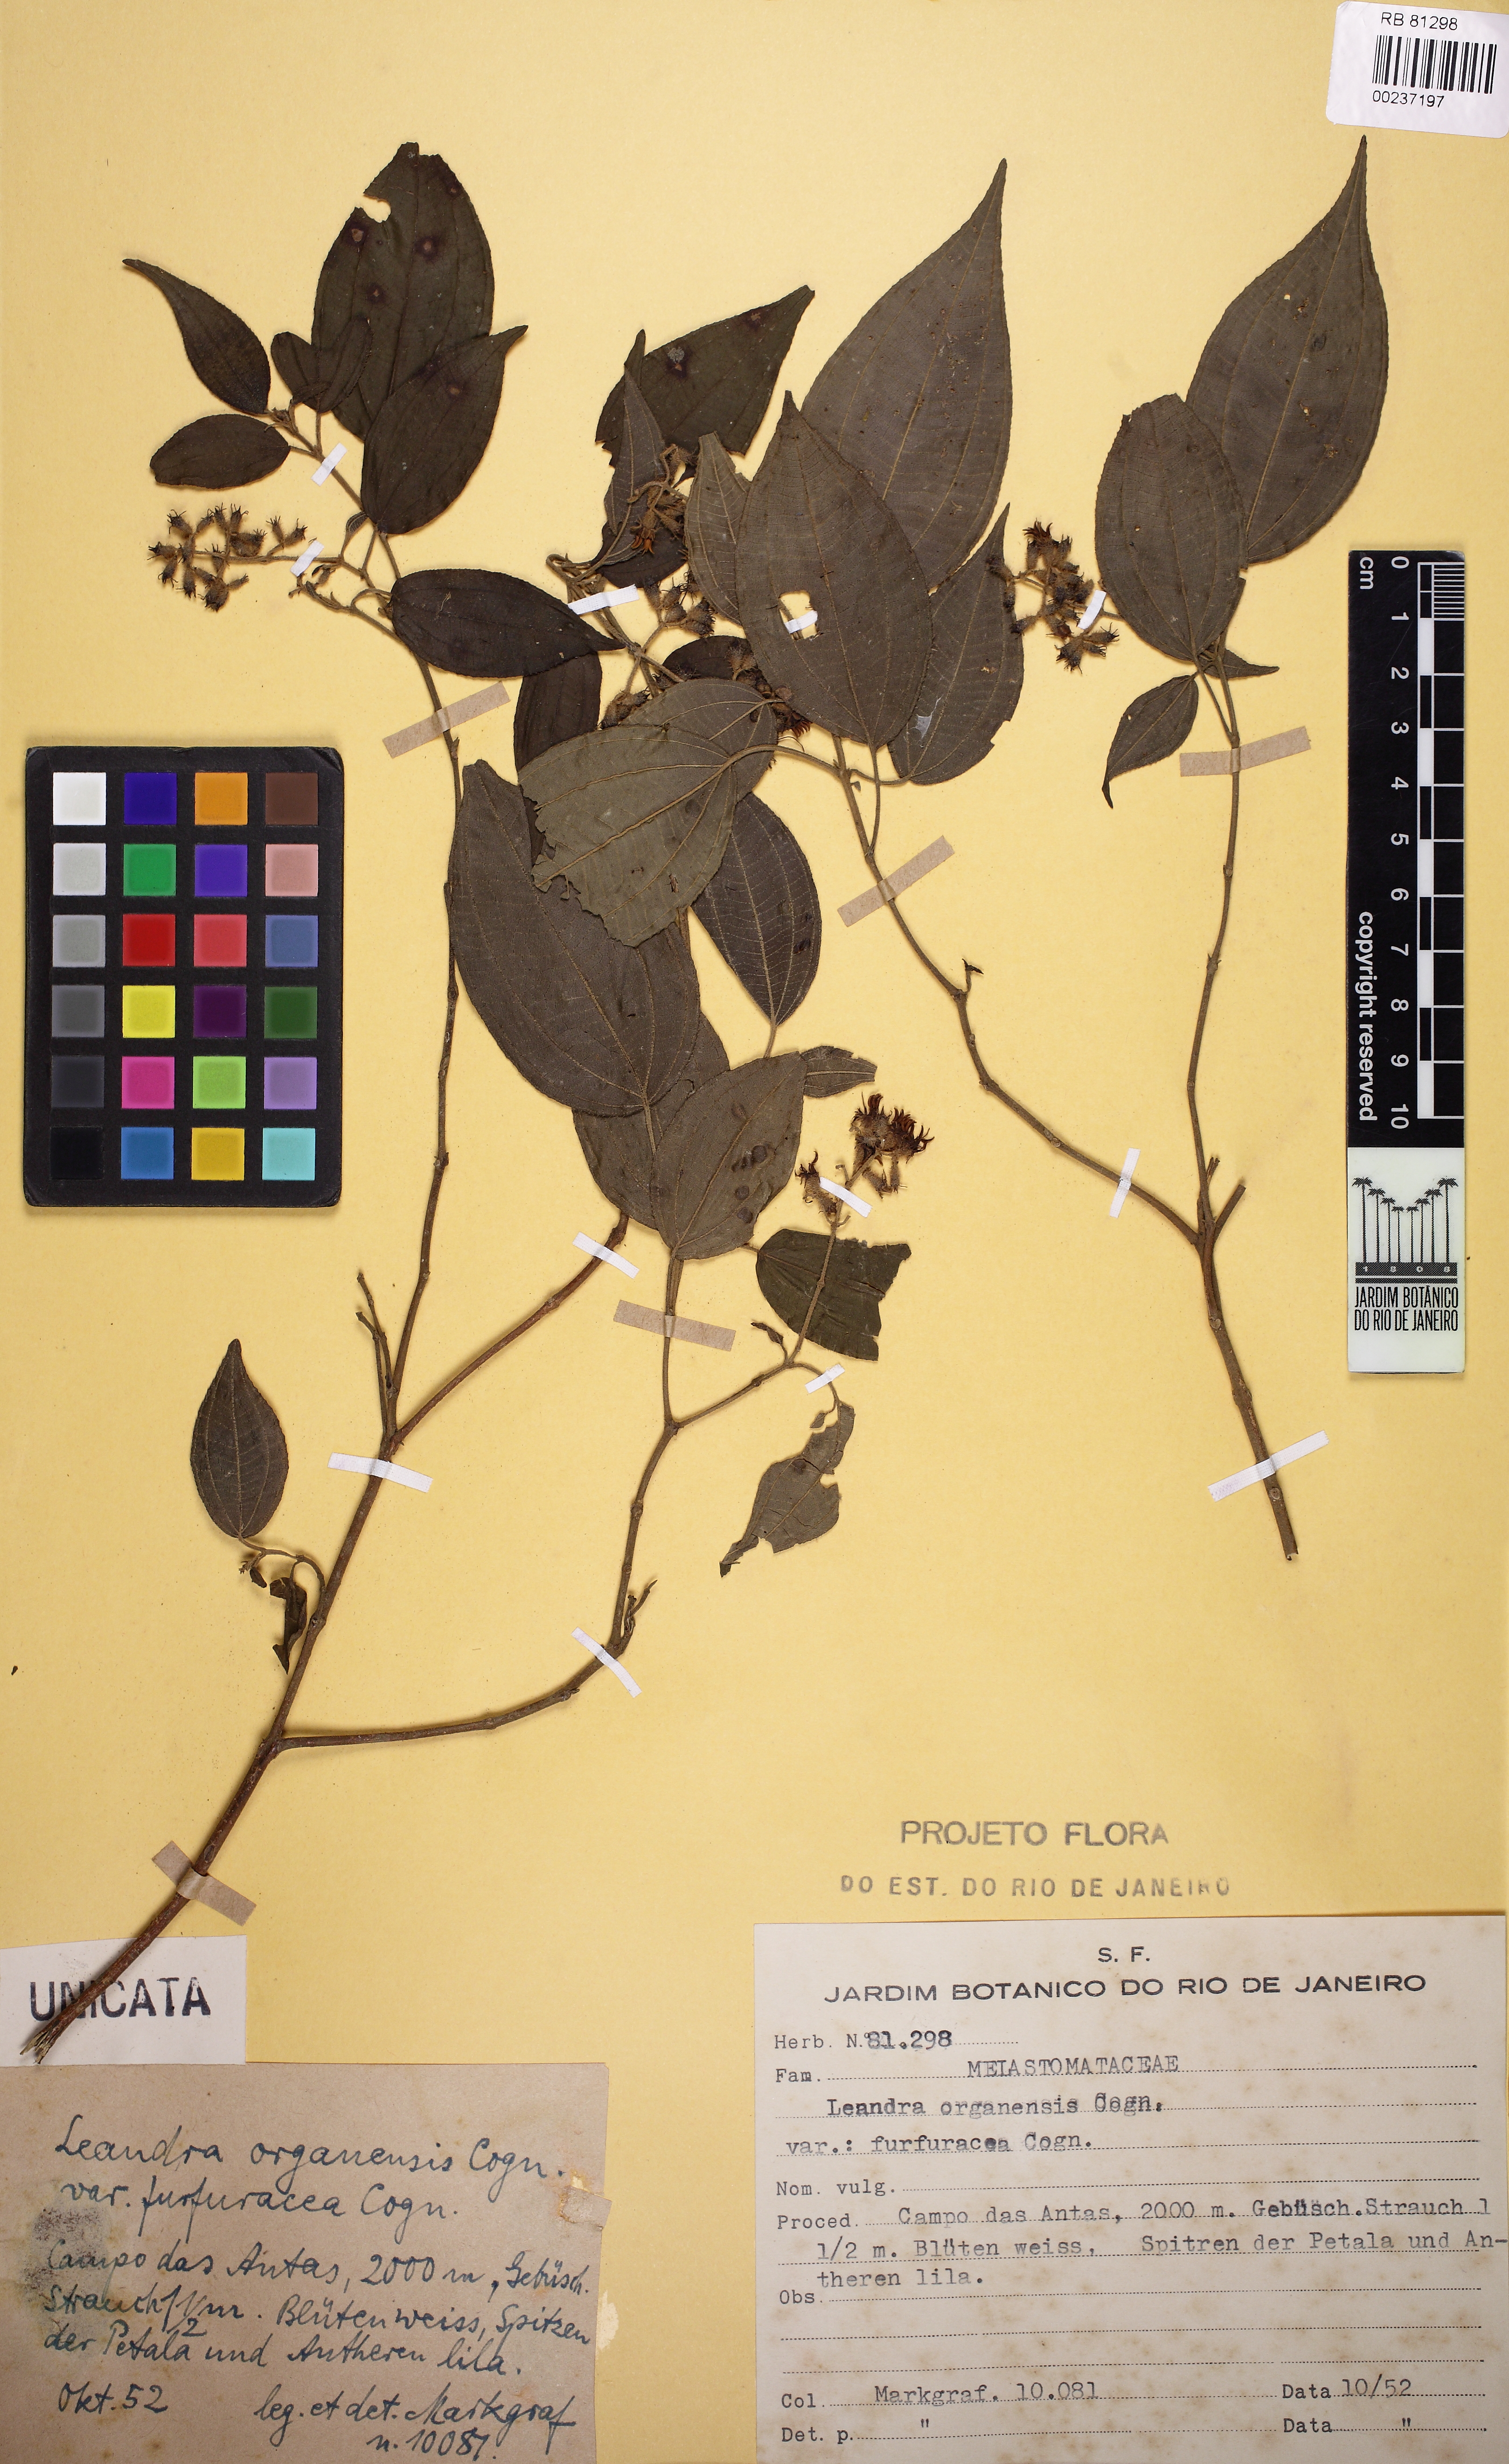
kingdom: Plantae
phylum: Tracheophyta
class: Magnoliopsida
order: Myrtales
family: Melastomataceae
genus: Miconia
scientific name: Miconia leaorganensis
